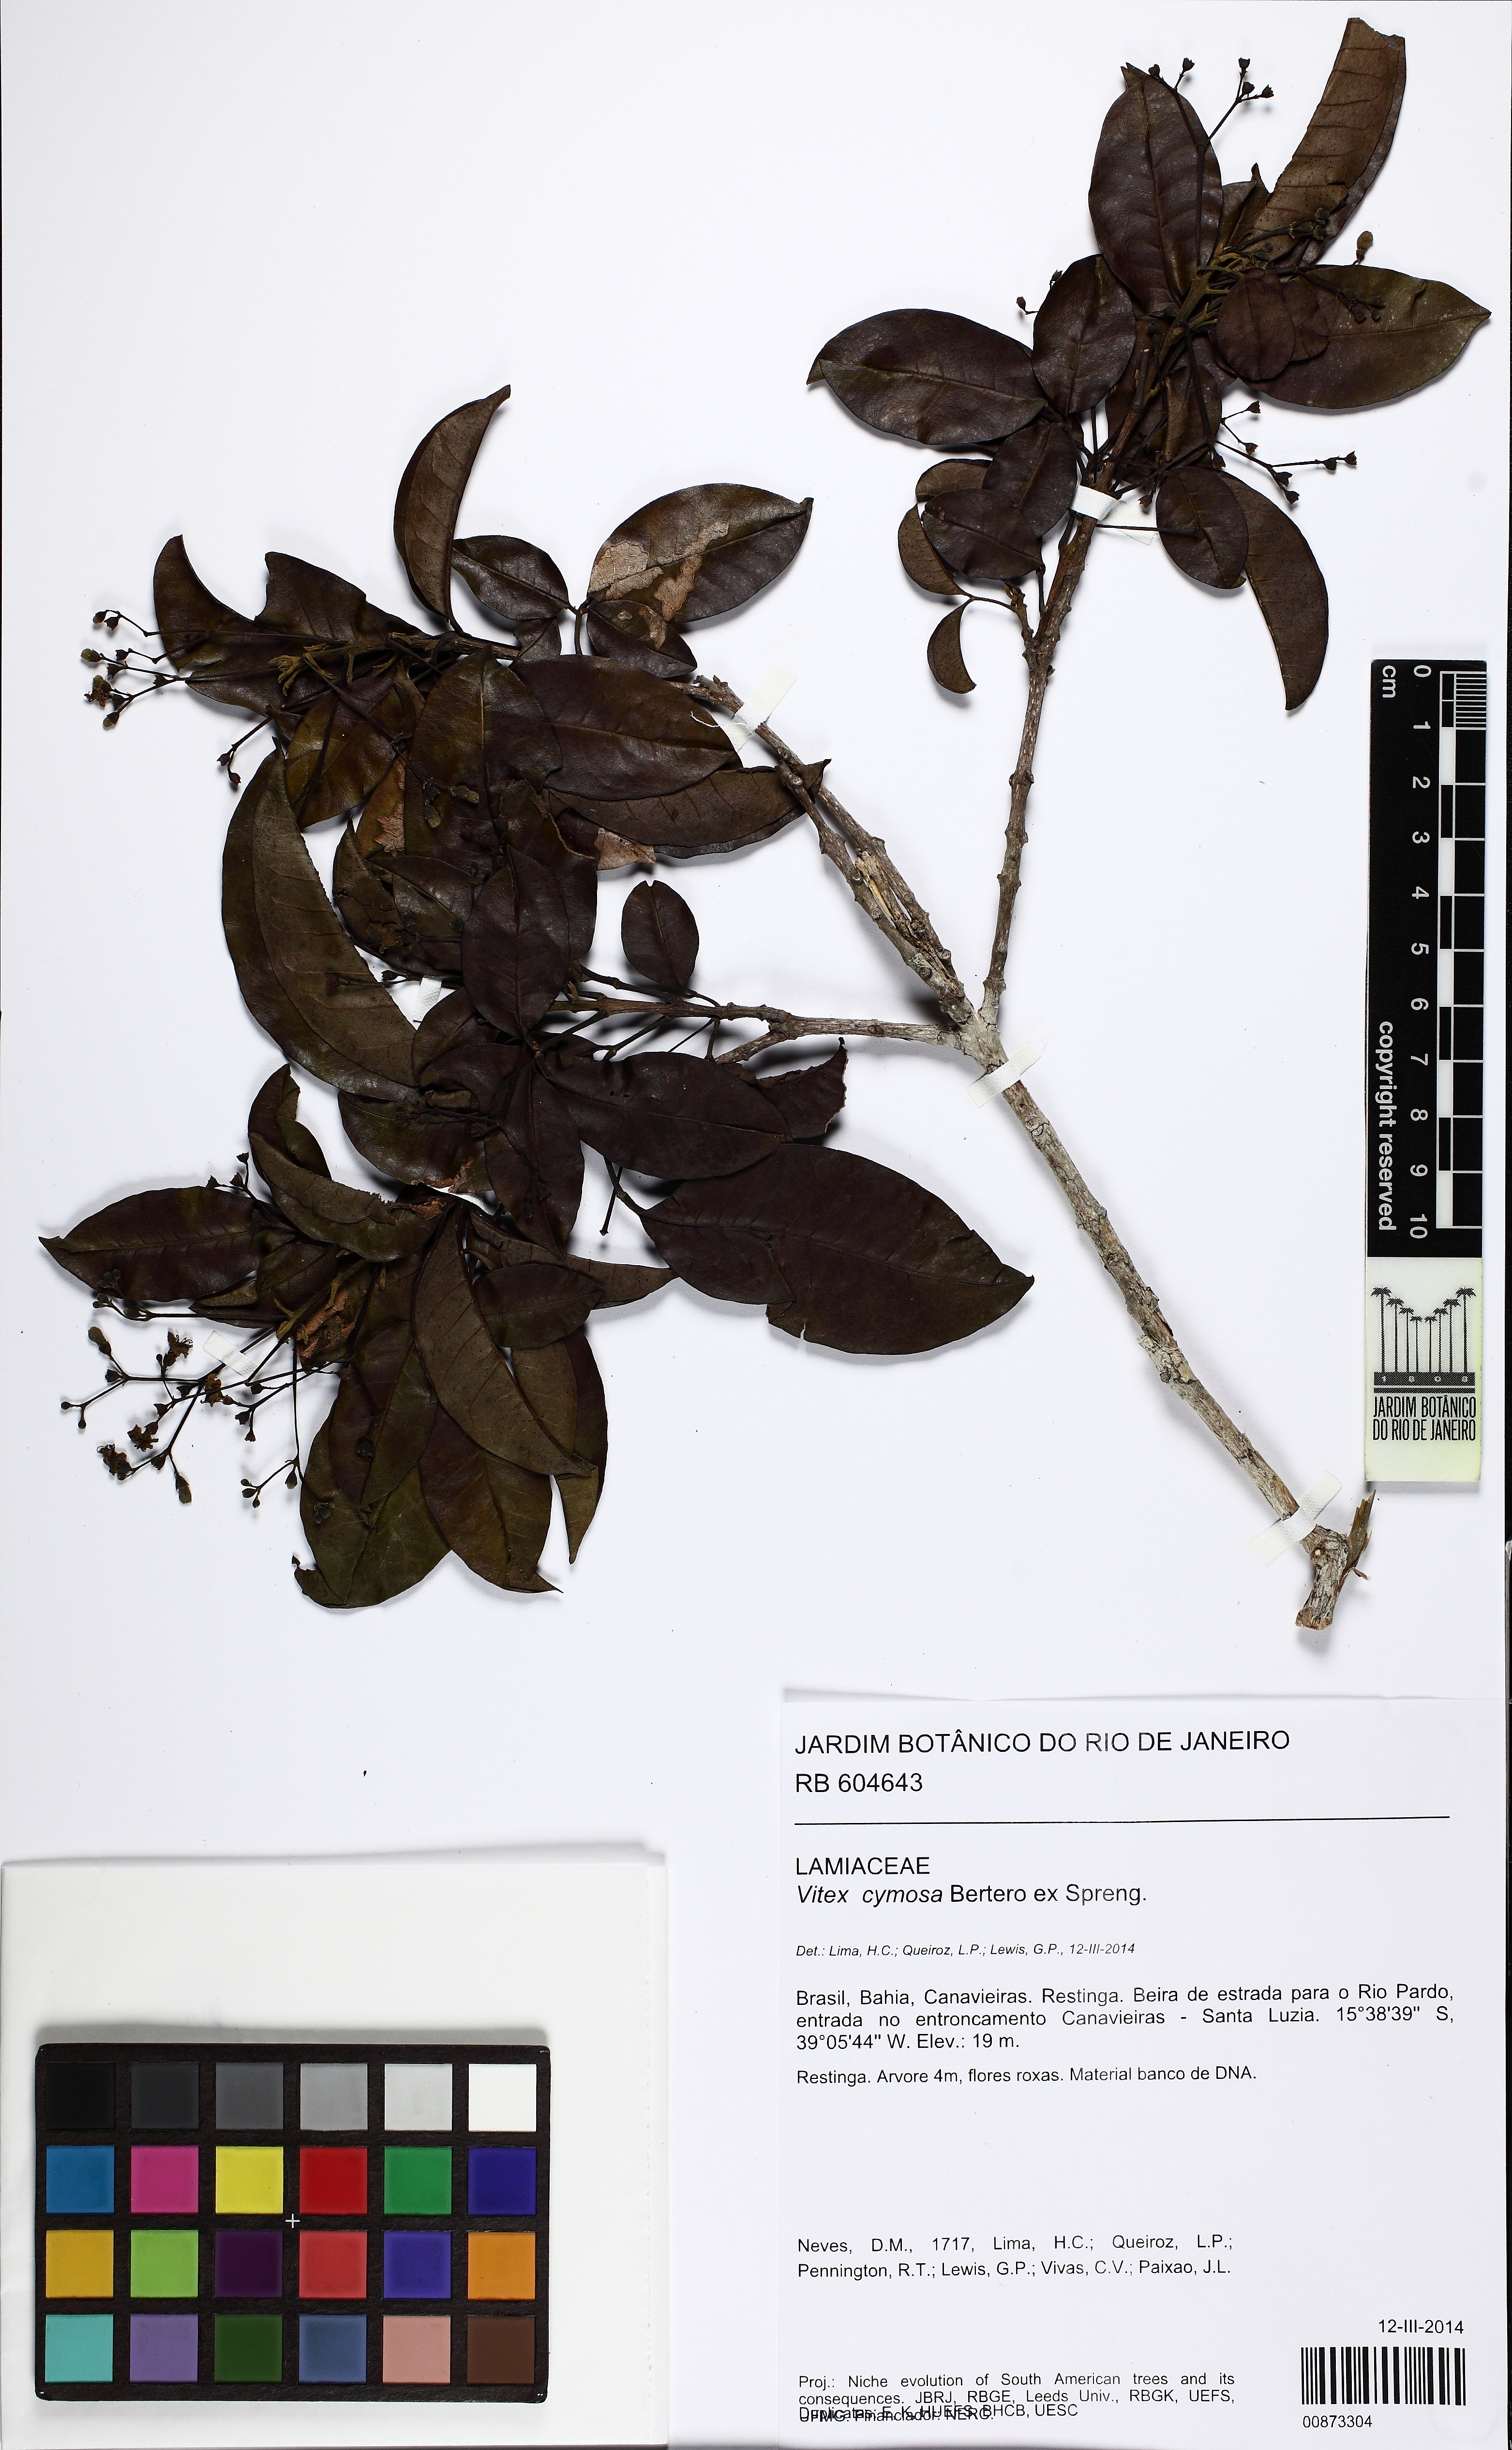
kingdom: Plantae
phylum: Tracheophyta
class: Magnoliopsida
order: Lamiales
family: Lamiaceae
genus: Vitex
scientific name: Vitex cymosa
